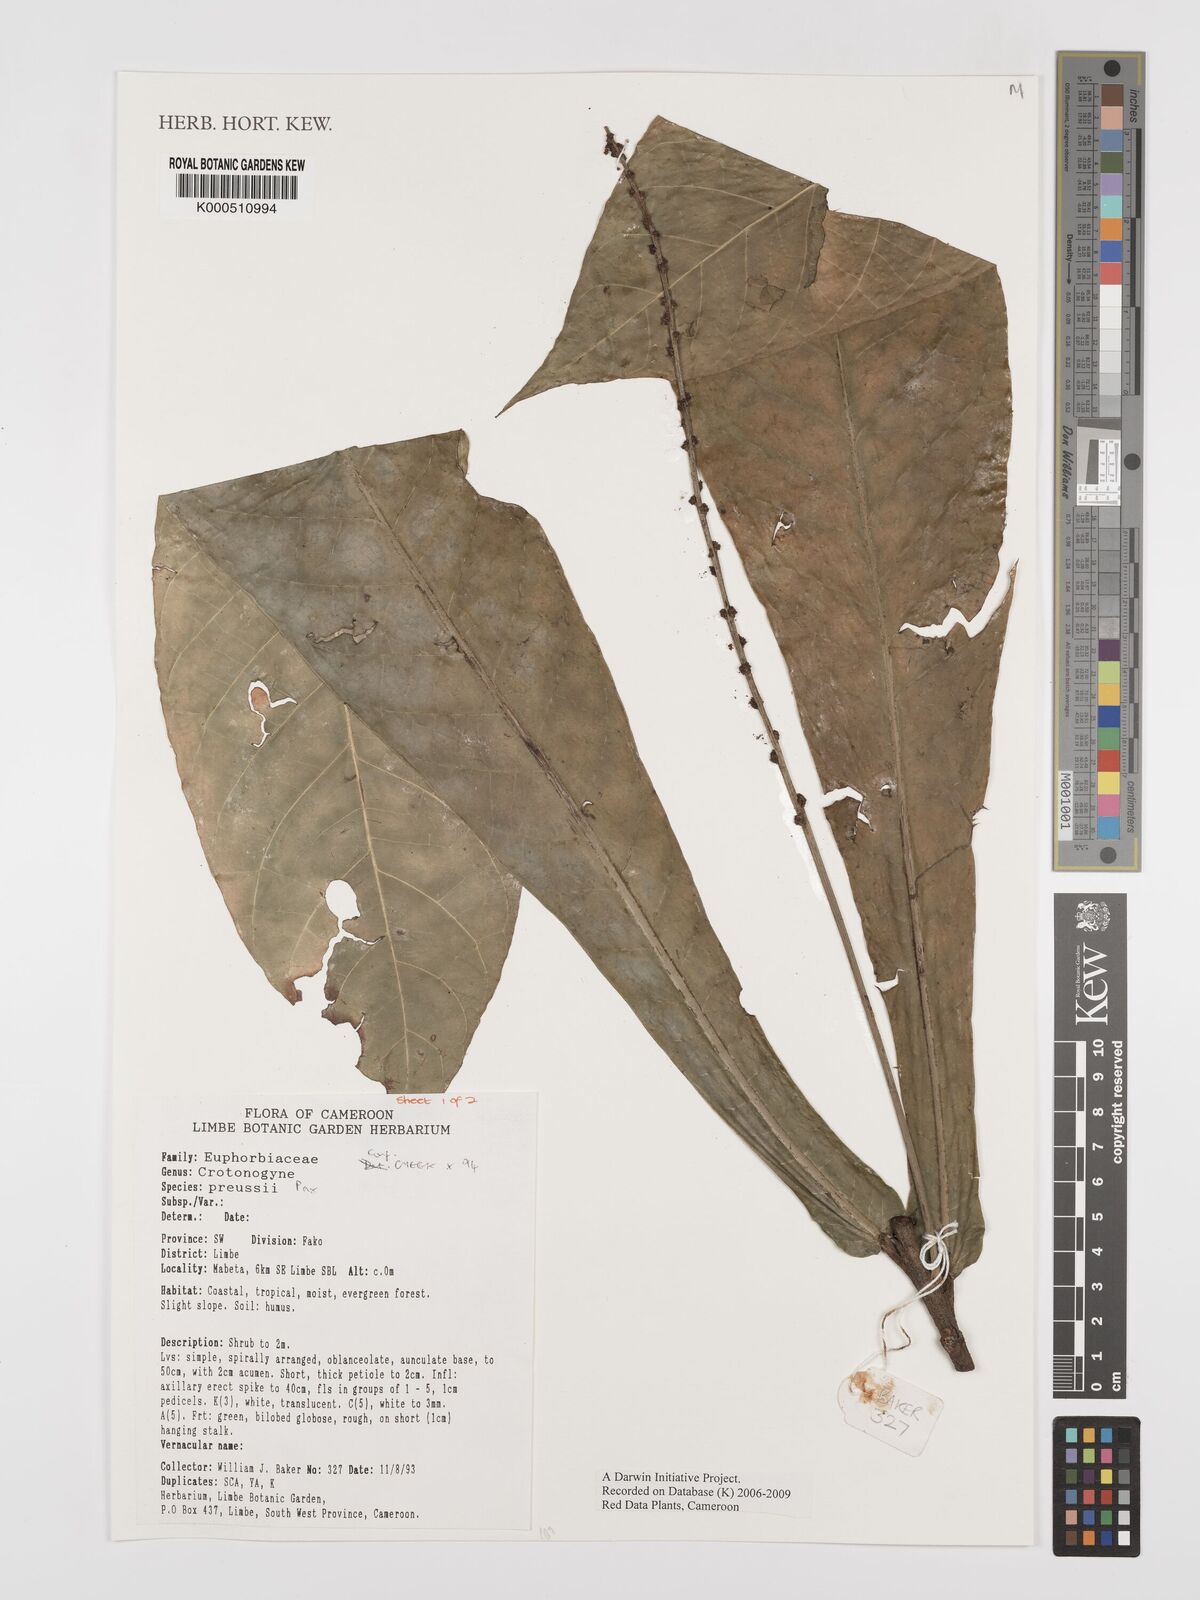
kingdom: Plantae
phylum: Tracheophyta
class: Magnoliopsida
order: Malpighiales
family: Euphorbiaceae
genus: Crotonogyne
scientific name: Crotonogyne preussii
